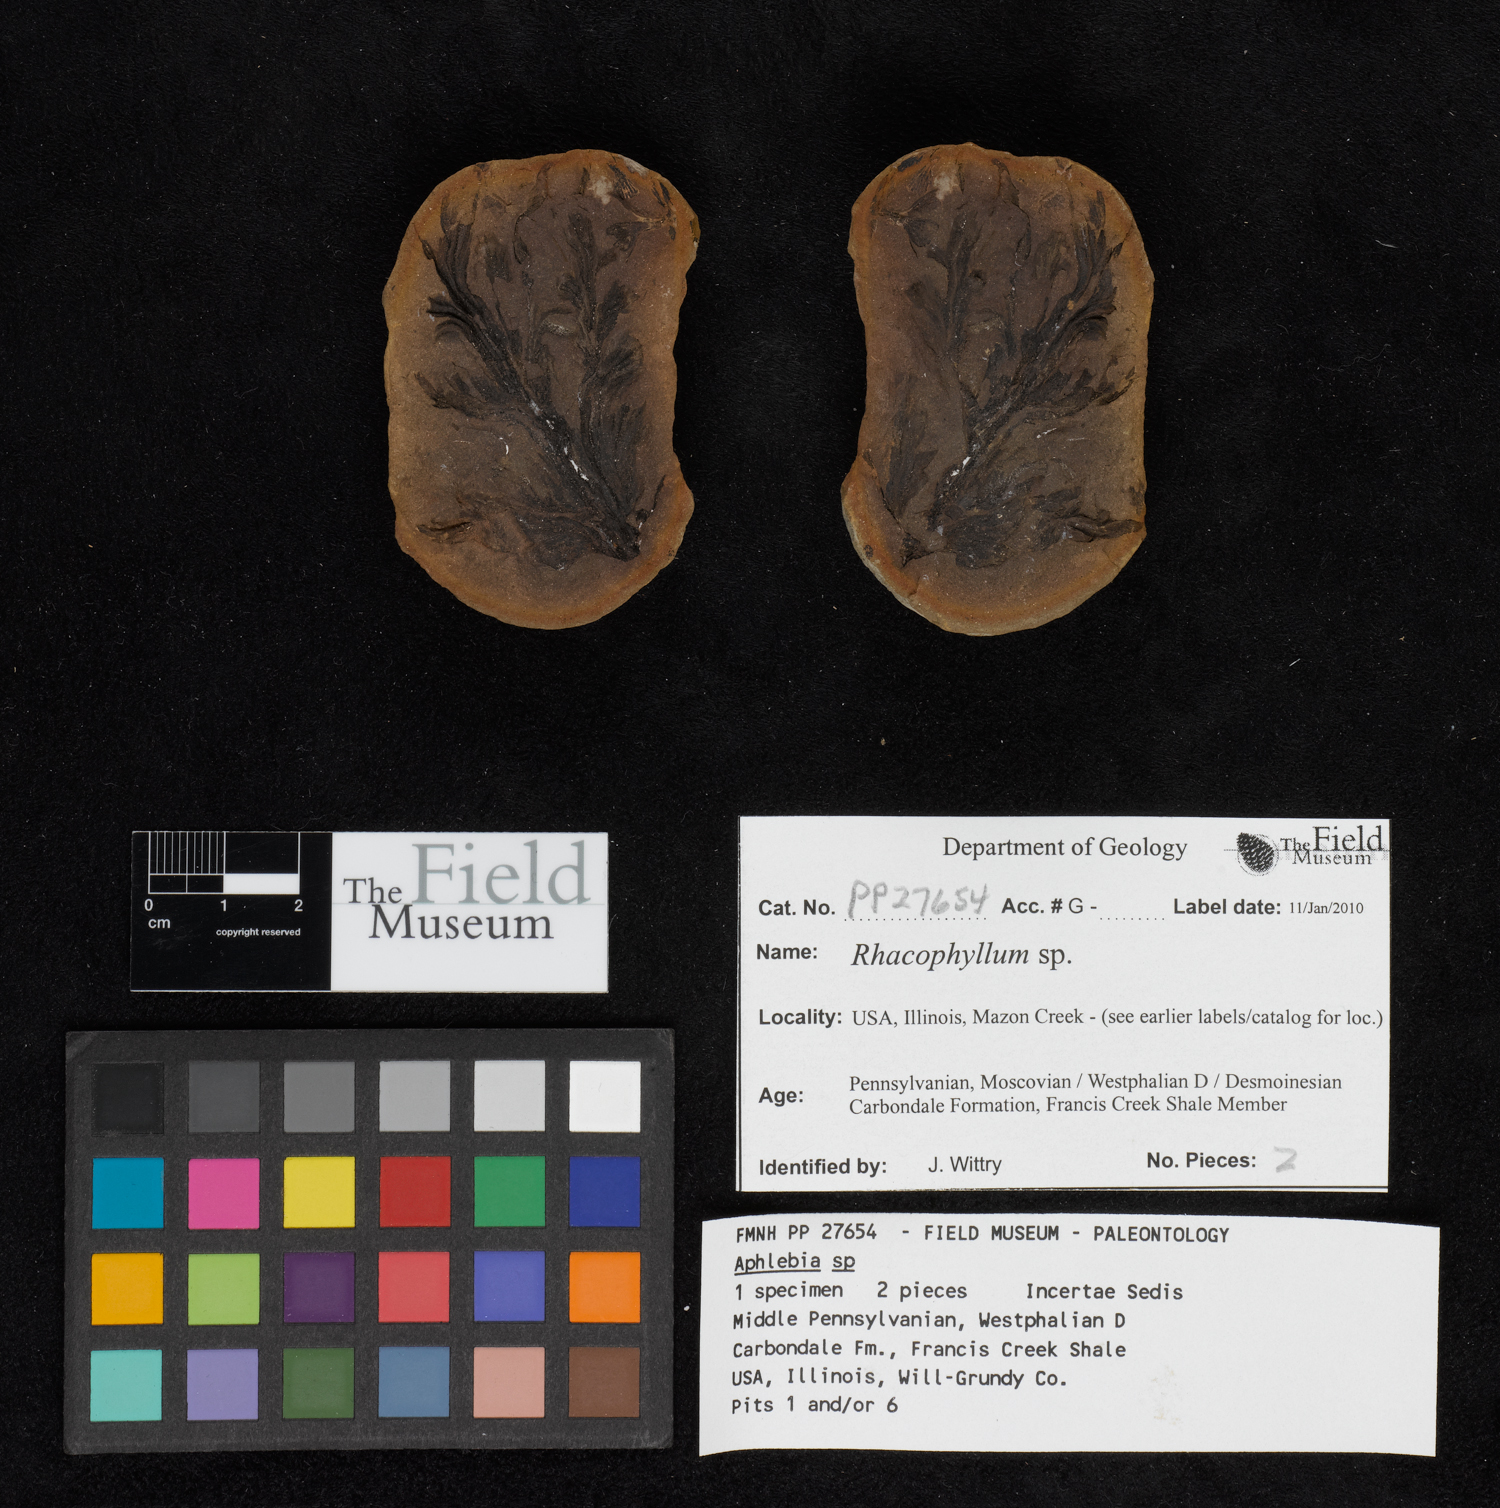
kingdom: Plantae
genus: Rhacophyllum
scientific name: Rhacophyllum
